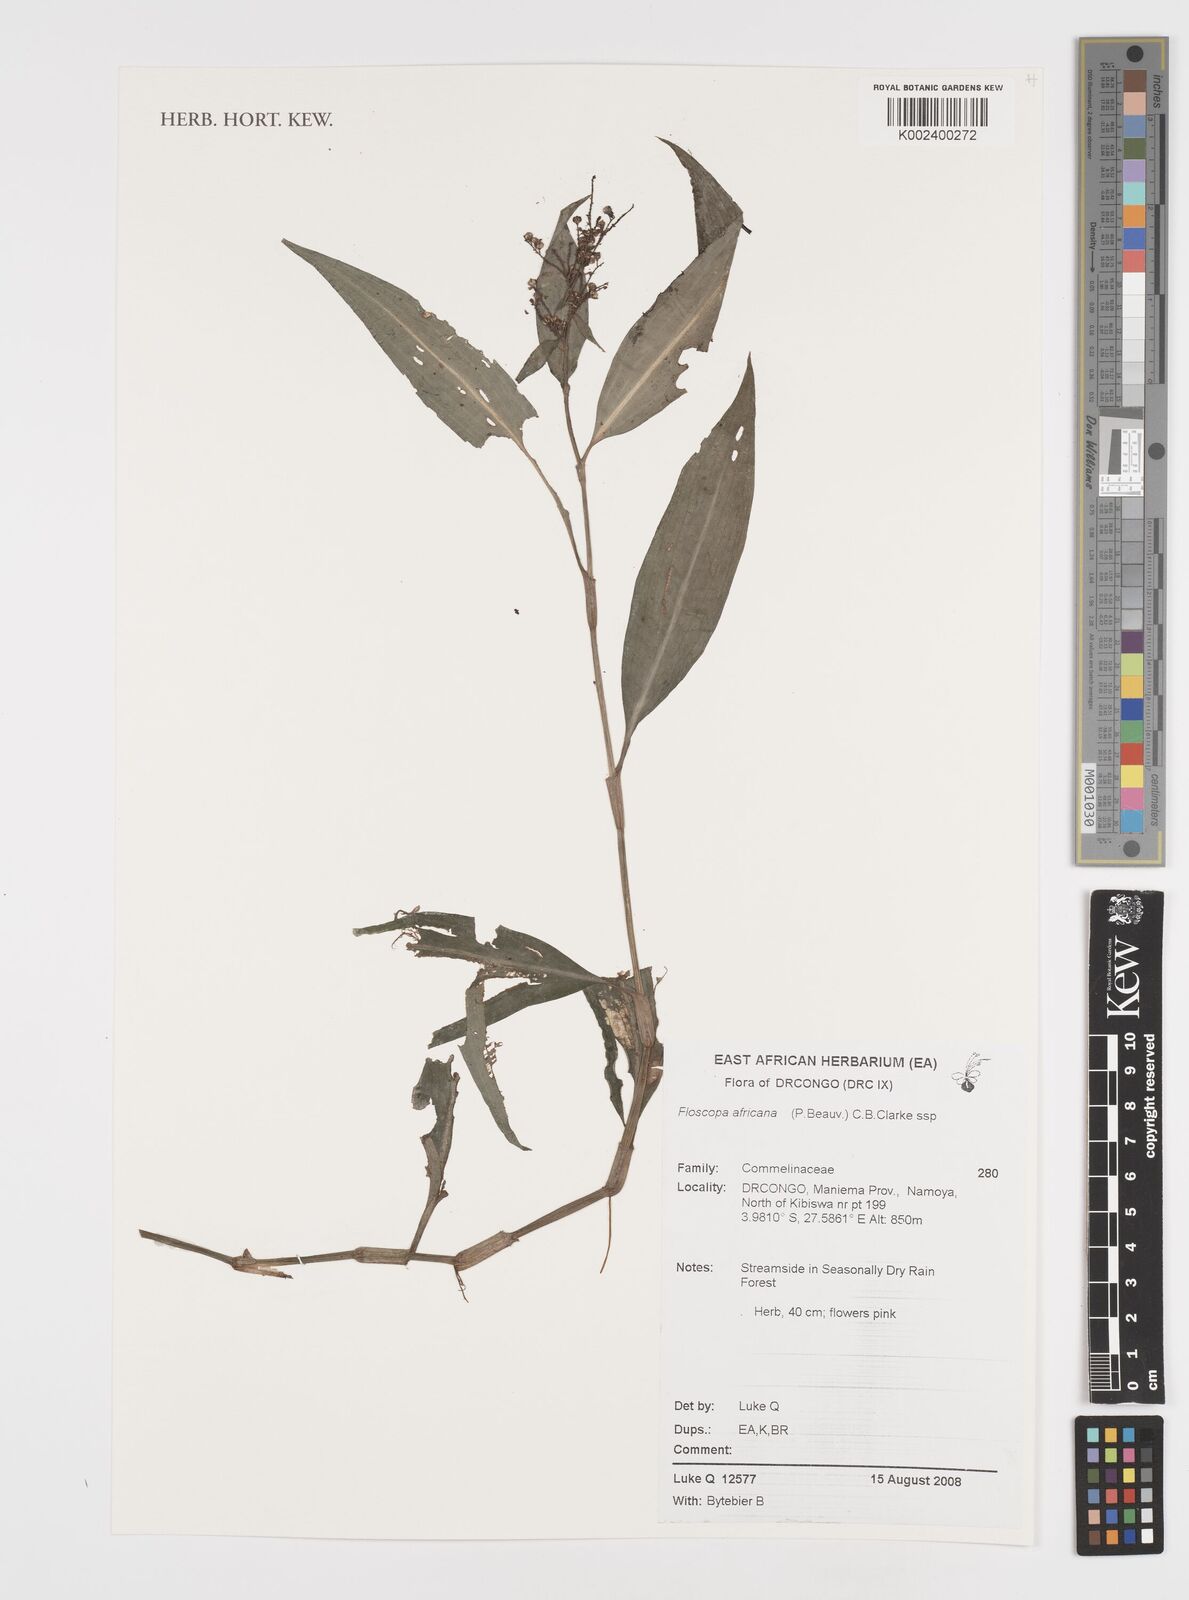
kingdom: Plantae
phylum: Tracheophyta
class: Liliopsida
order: Commelinales
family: Commelinaceae
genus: Floscopa
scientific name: Floscopa africana
